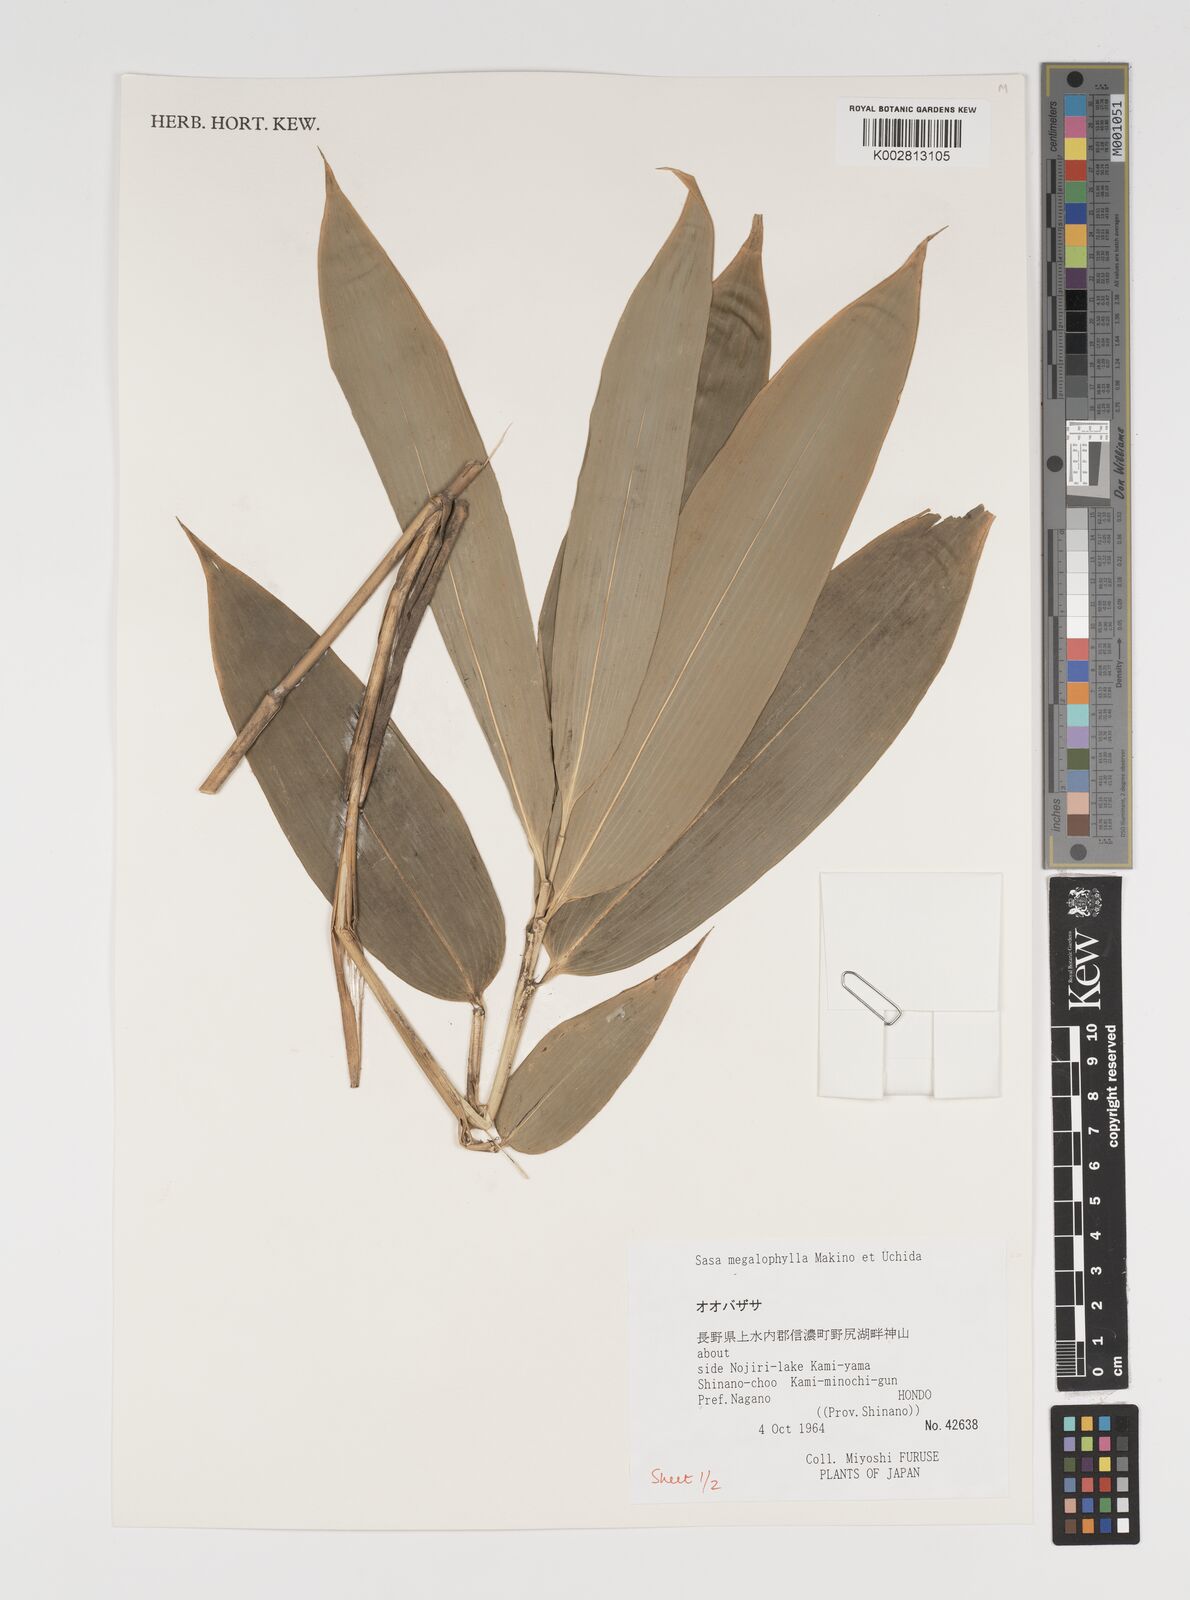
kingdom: Plantae
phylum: Tracheophyta
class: Liliopsida
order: Poales
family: Poaceae
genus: Sasa
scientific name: Sasa megalophylla
